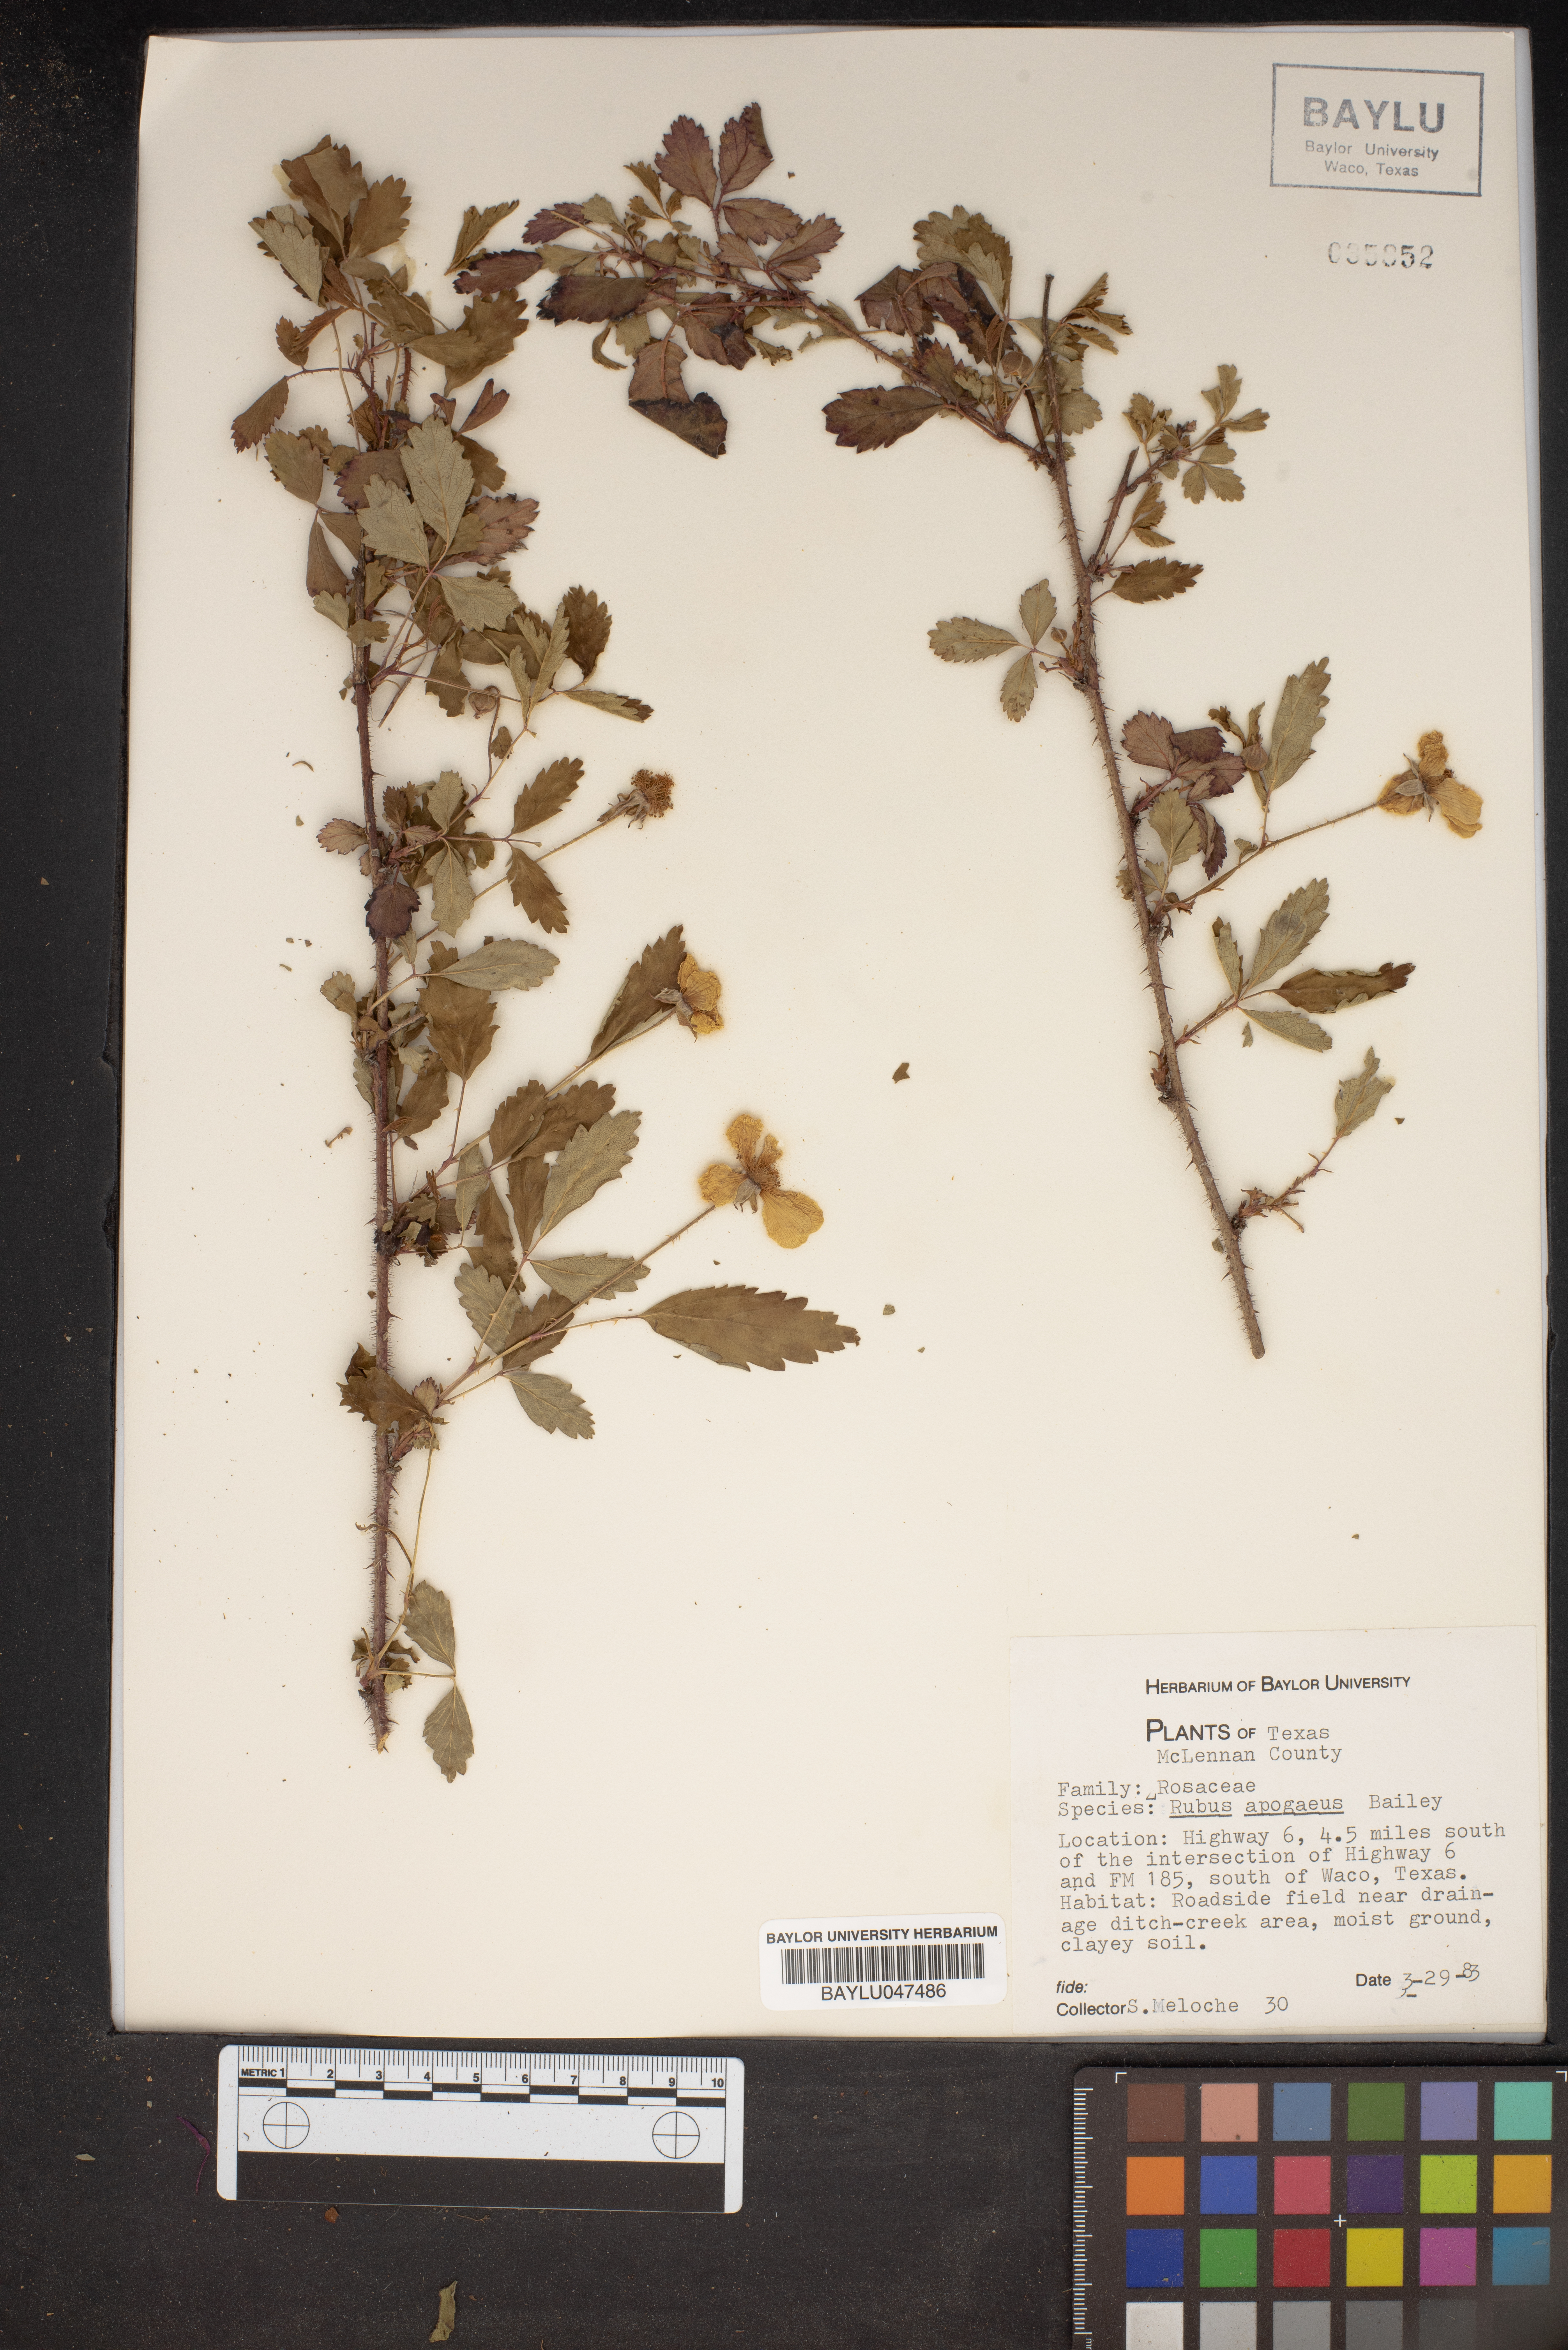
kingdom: Plantae
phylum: Tracheophyta
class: Magnoliopsida
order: Rosales
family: Rosaceae
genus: Rubus
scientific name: Rubus apogaeus
